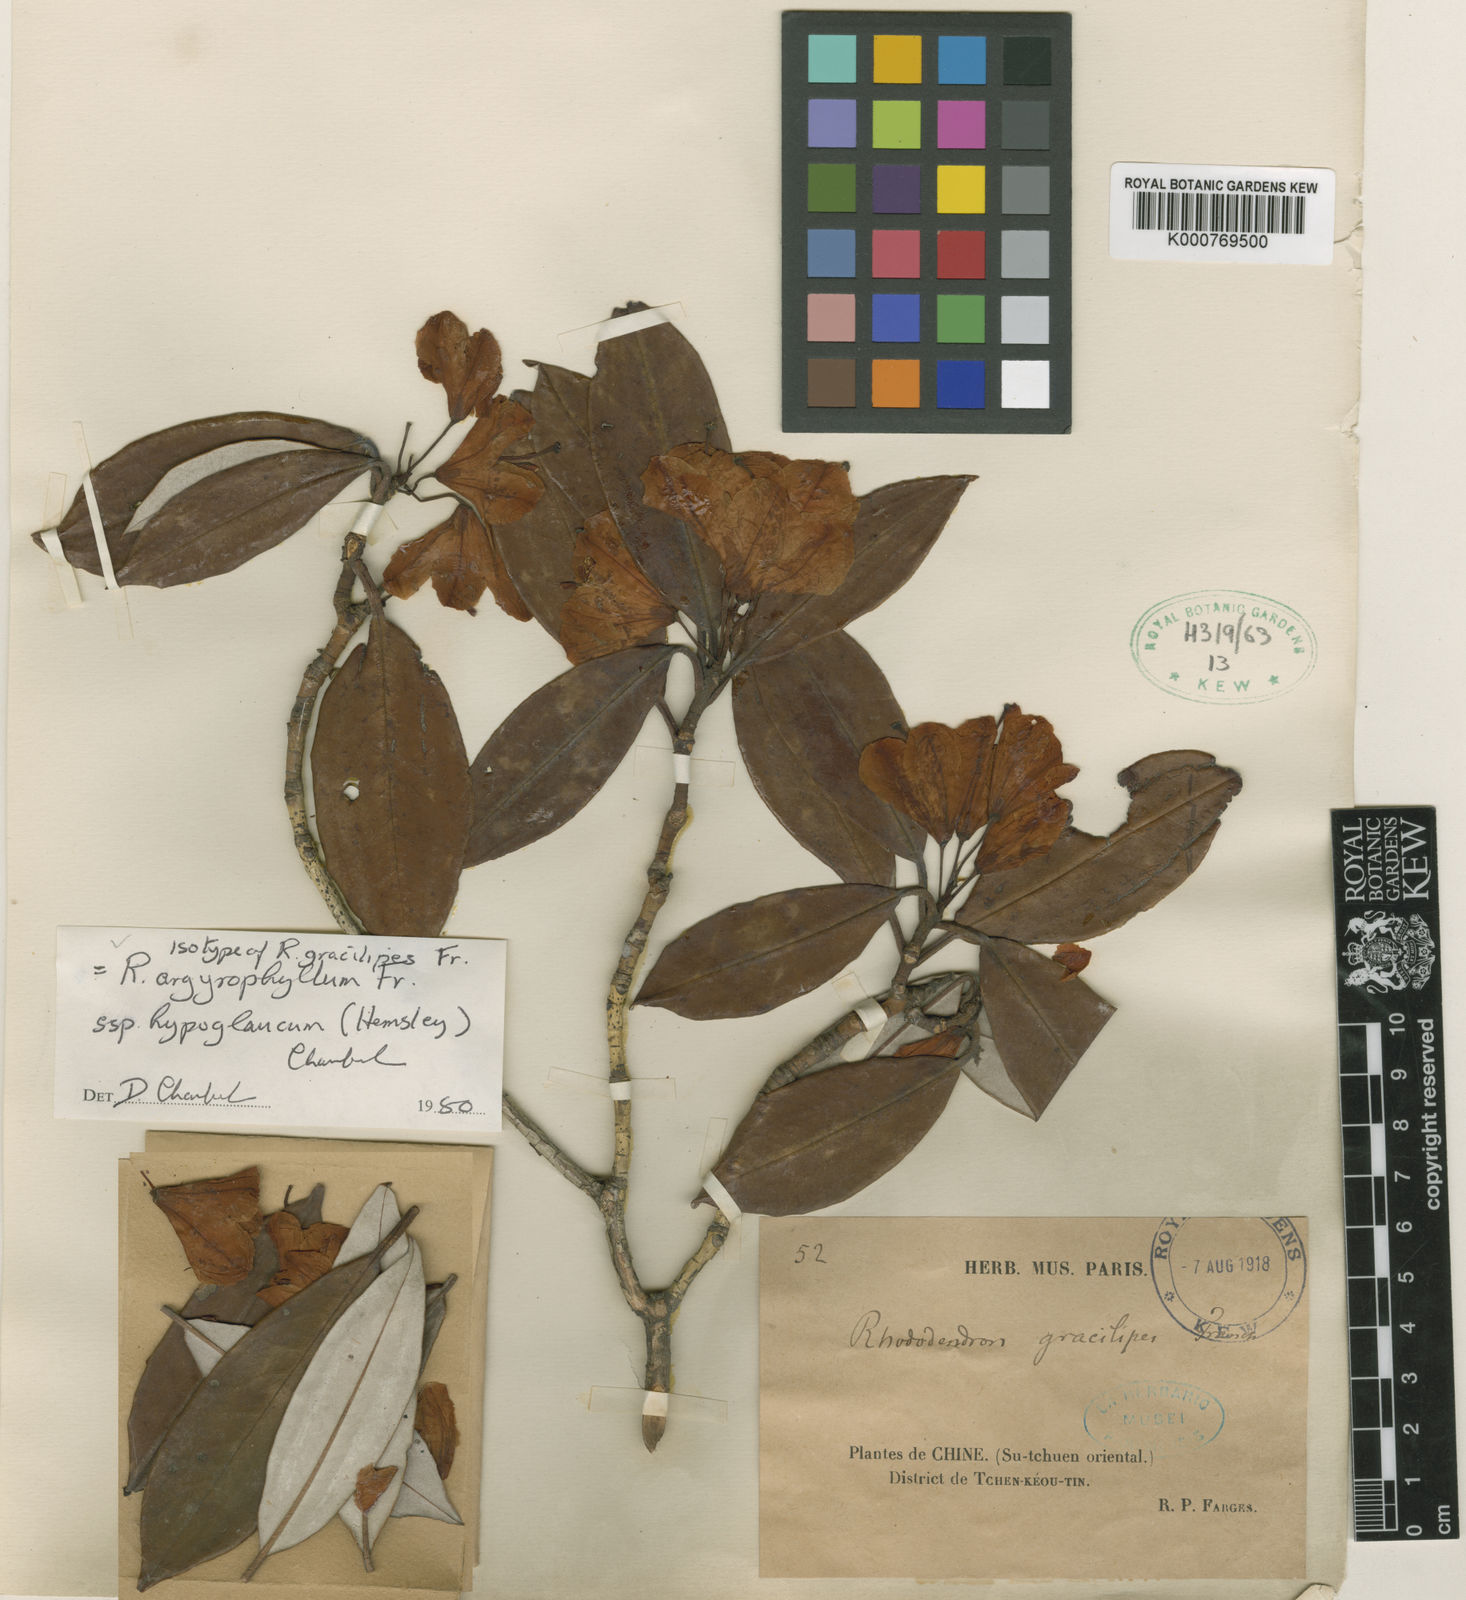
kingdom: Plantae
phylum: Tracheophyta
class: Magnoliopsida
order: Ericales
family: Ericaceae
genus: Rhododendron
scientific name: Rhododendron hypoglaucum
